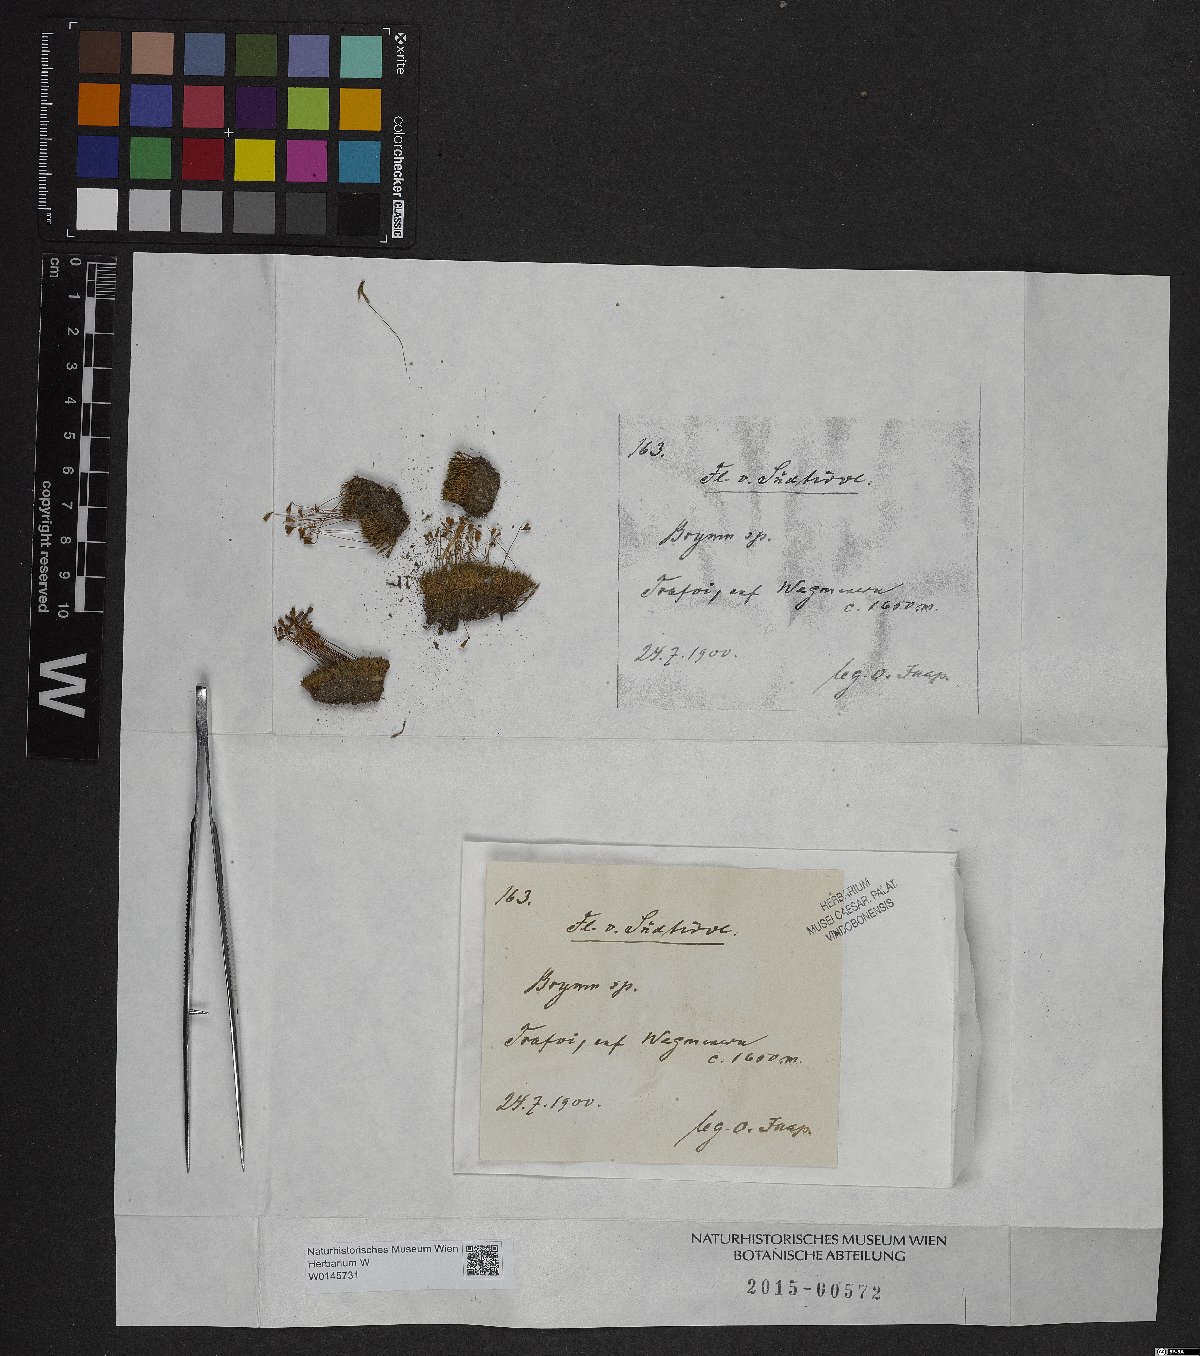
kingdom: Plantae
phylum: Bryophyta
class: Bryopsida
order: Bryales
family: Bryaceae
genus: Bryum
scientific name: Bryum
